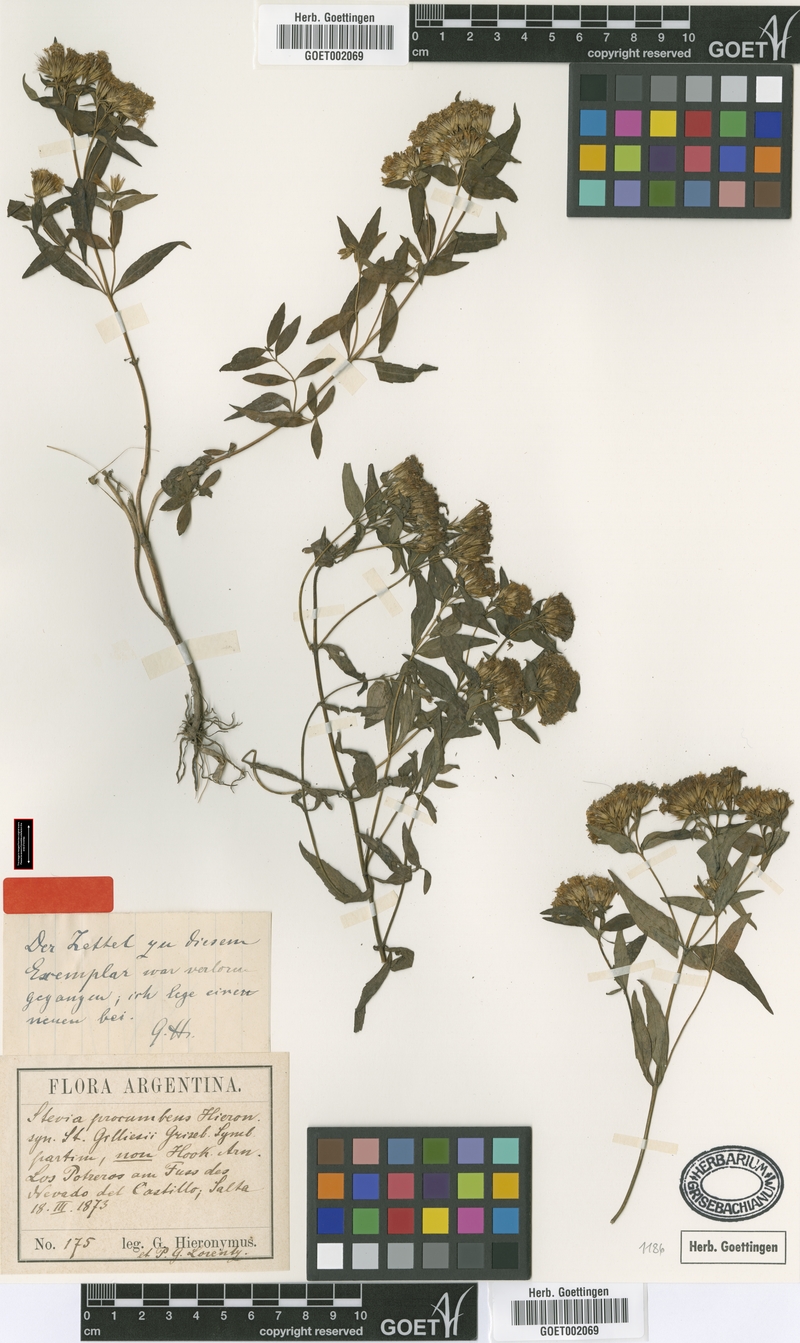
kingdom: Plantae
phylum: Tracheophyta
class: Magnoliopsida
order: Asterales
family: Asteraceae
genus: Stevia
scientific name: Stevia procumbens
